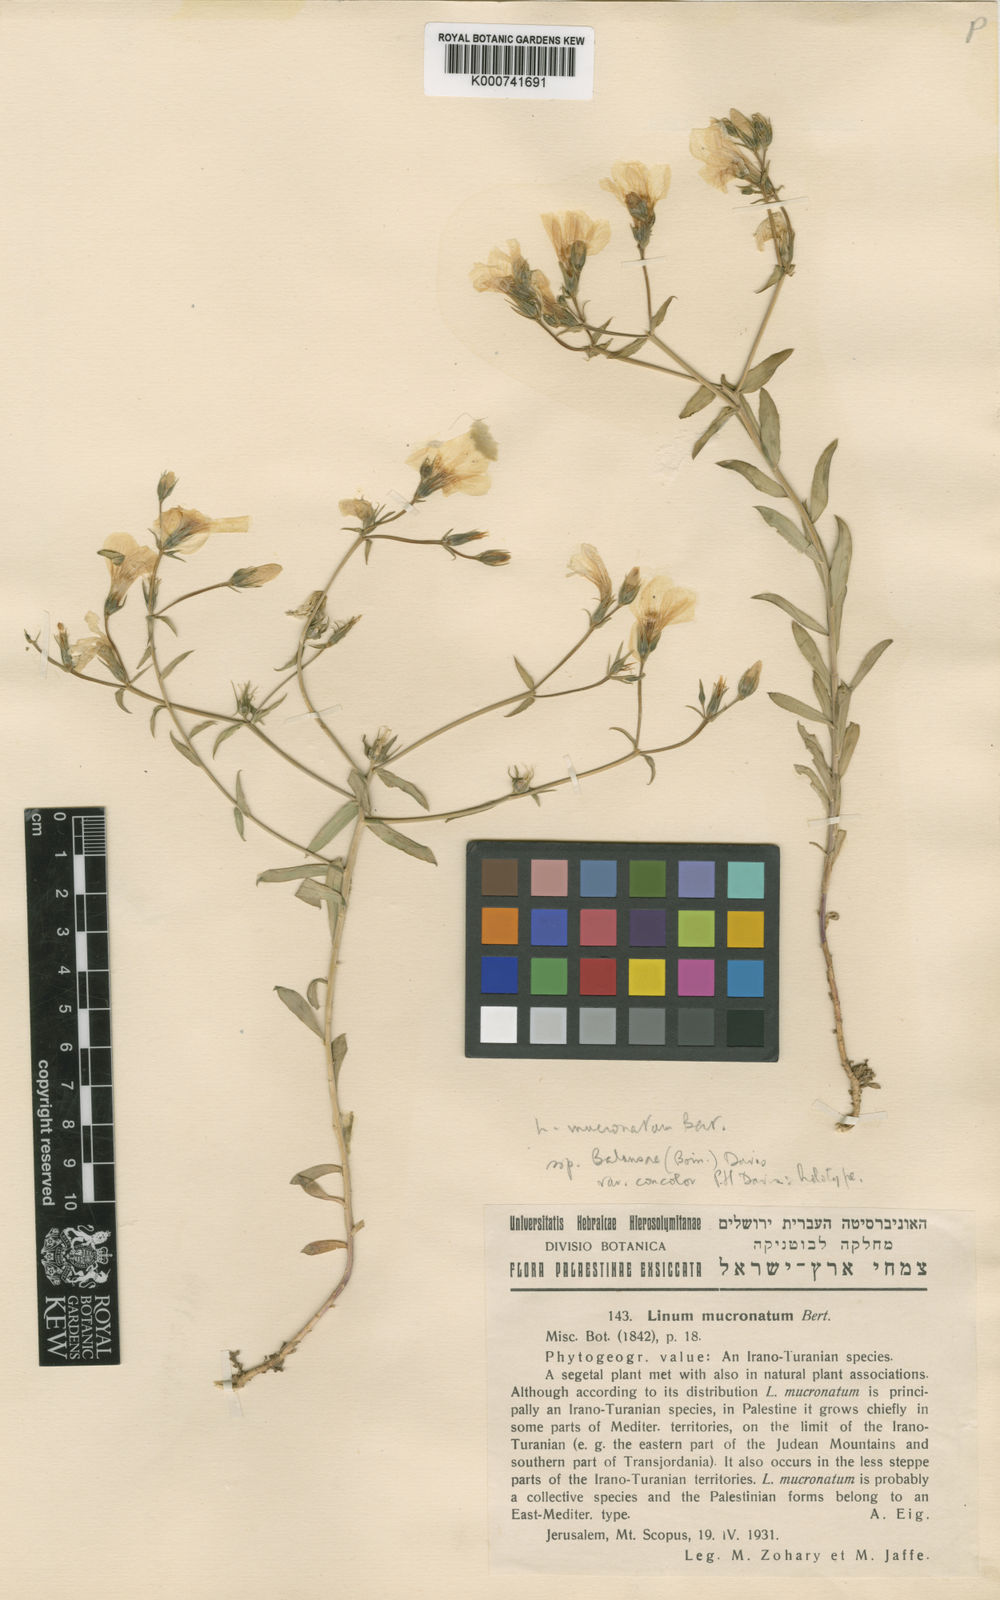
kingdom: Plantae
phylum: Tracheophyta
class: Magnoliopsida
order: Malpighiales
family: Linaceae
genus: Linum
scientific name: Linum mucronatum
